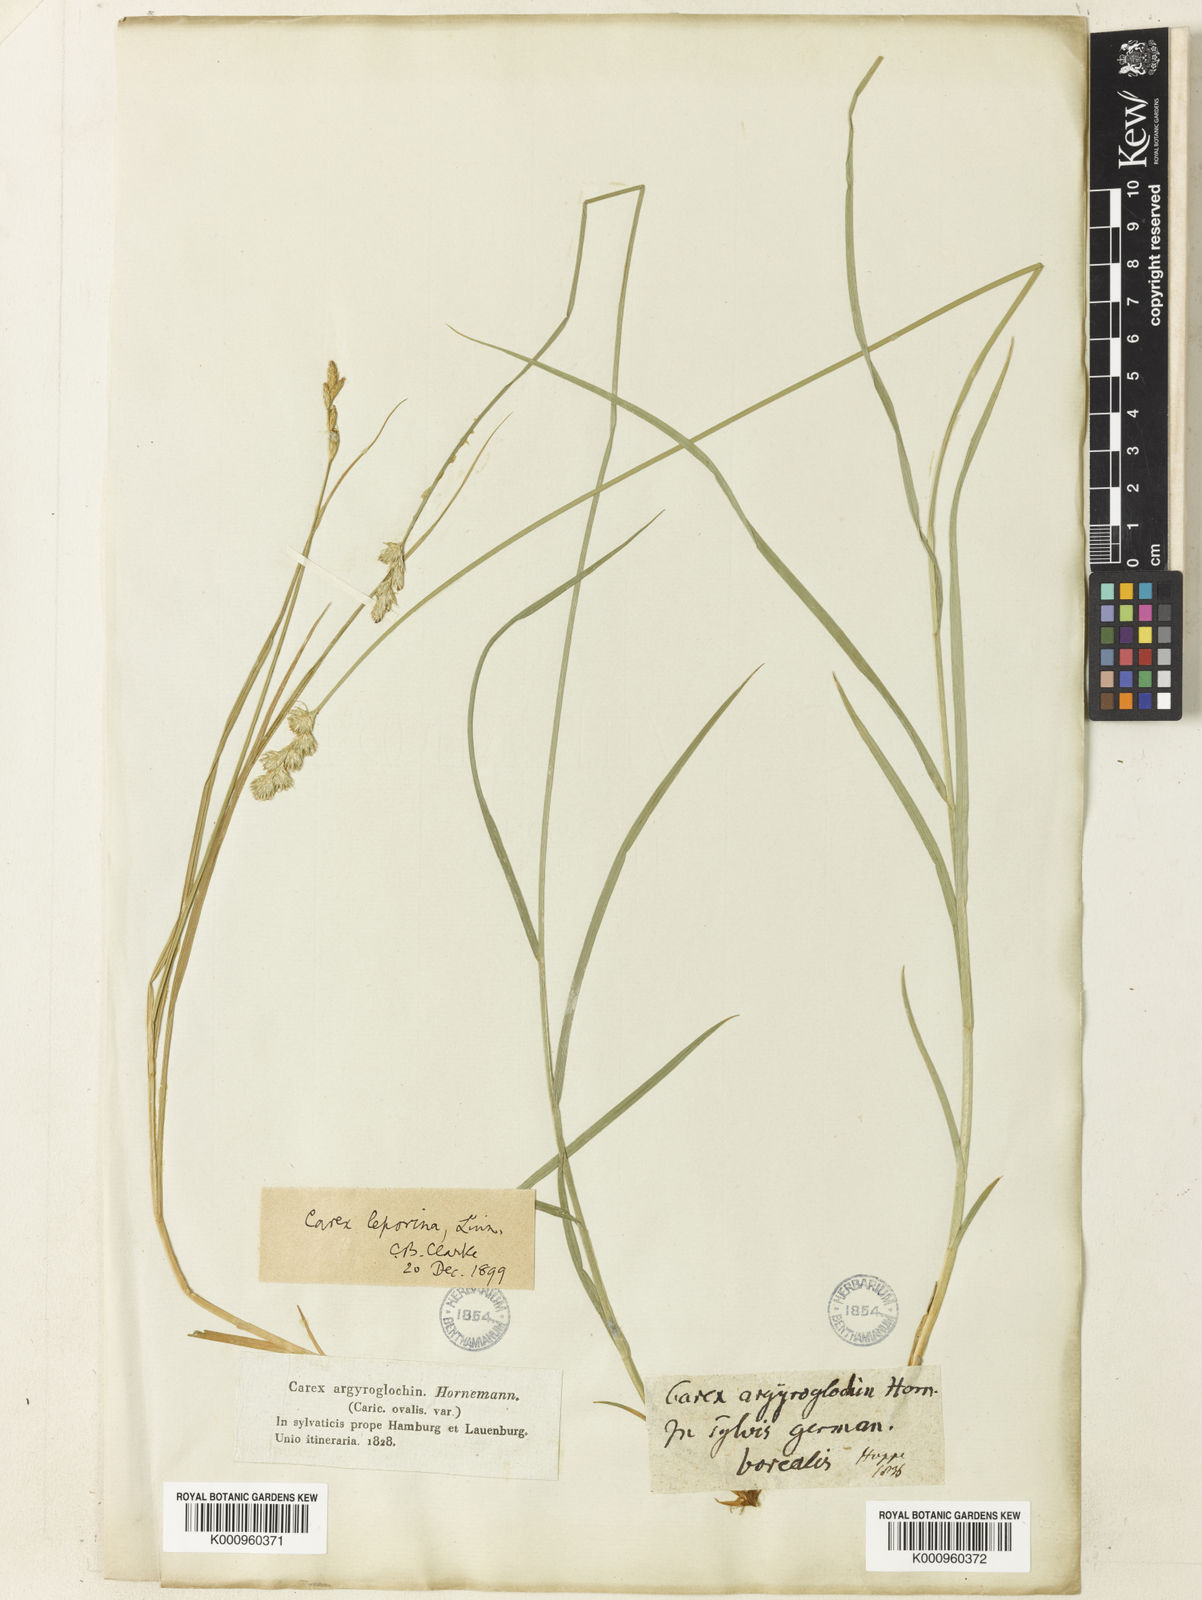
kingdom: Plantae
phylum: Tracheophyta
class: Liliopsida
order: Poales
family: Cyperaceae
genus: Carex
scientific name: Carex leporina
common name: Oval sedge
